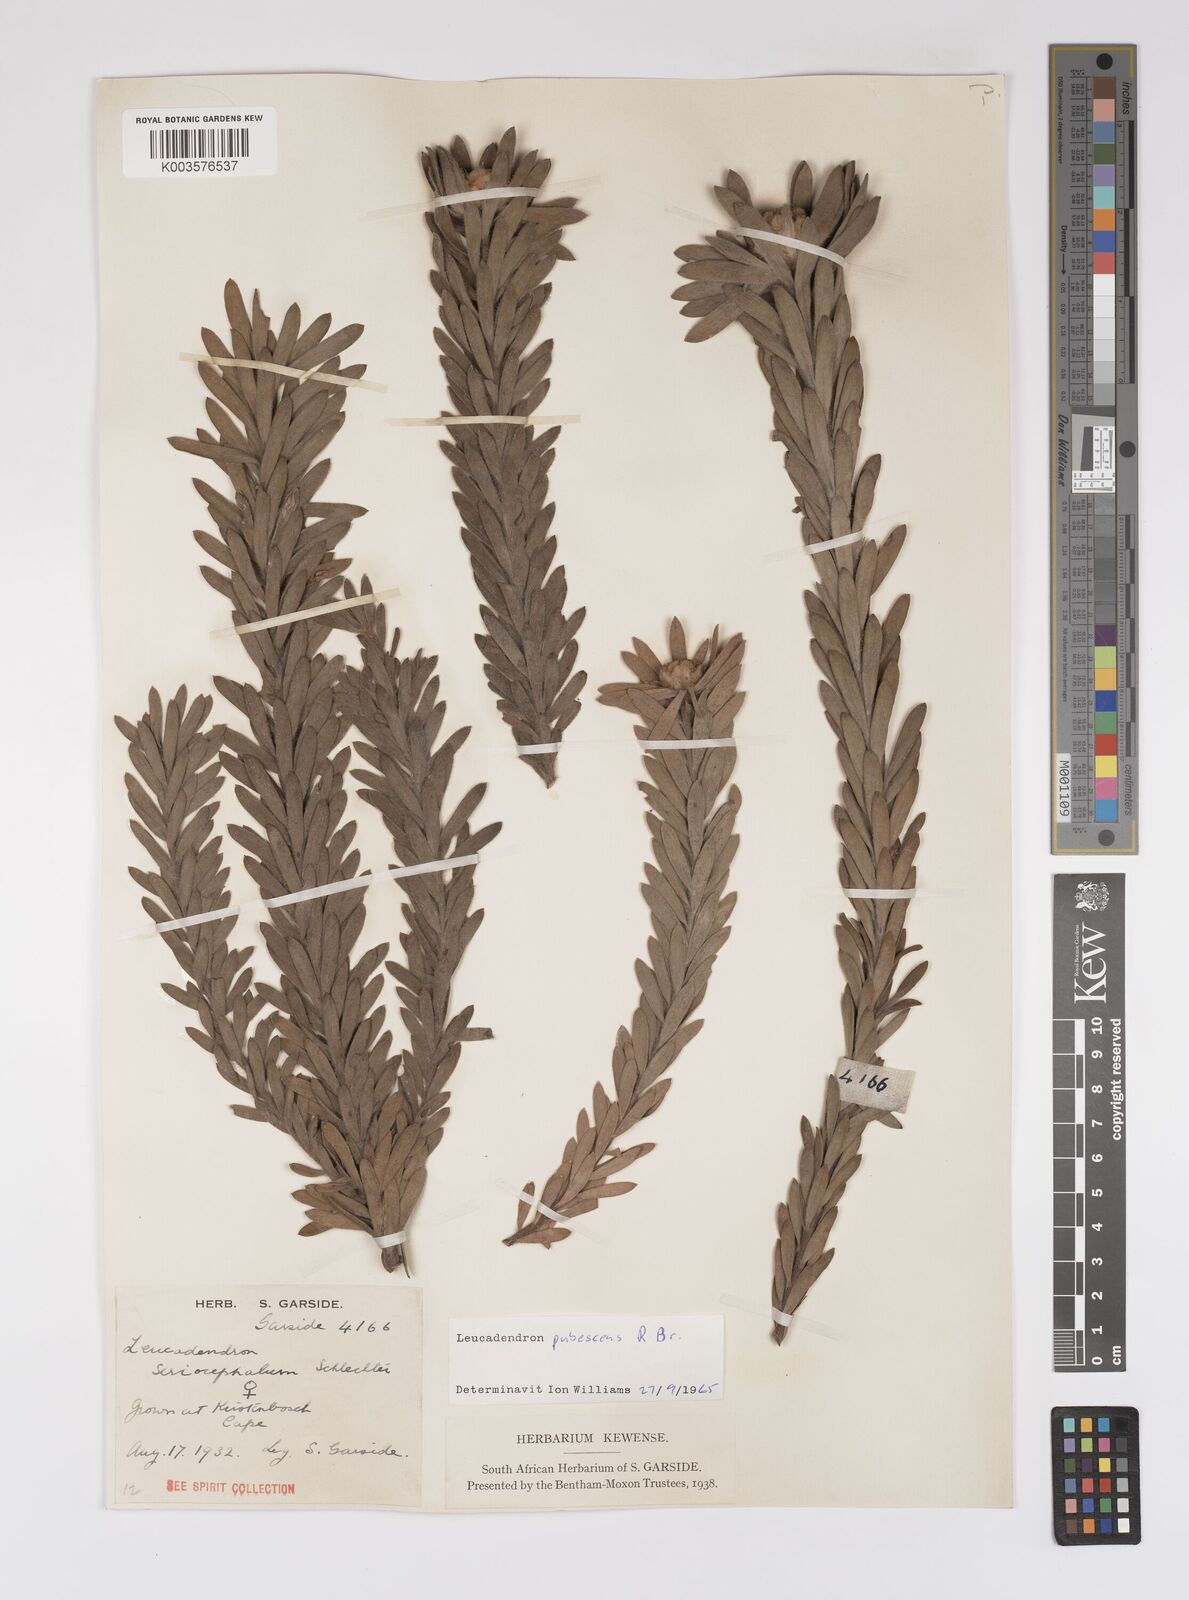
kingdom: Plantae
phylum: Tracheophyta
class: Magnoliopsida
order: Proteales
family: Proteaceae
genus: Leucadendron
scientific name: Leucadendron pubescens
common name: Grey conebush
